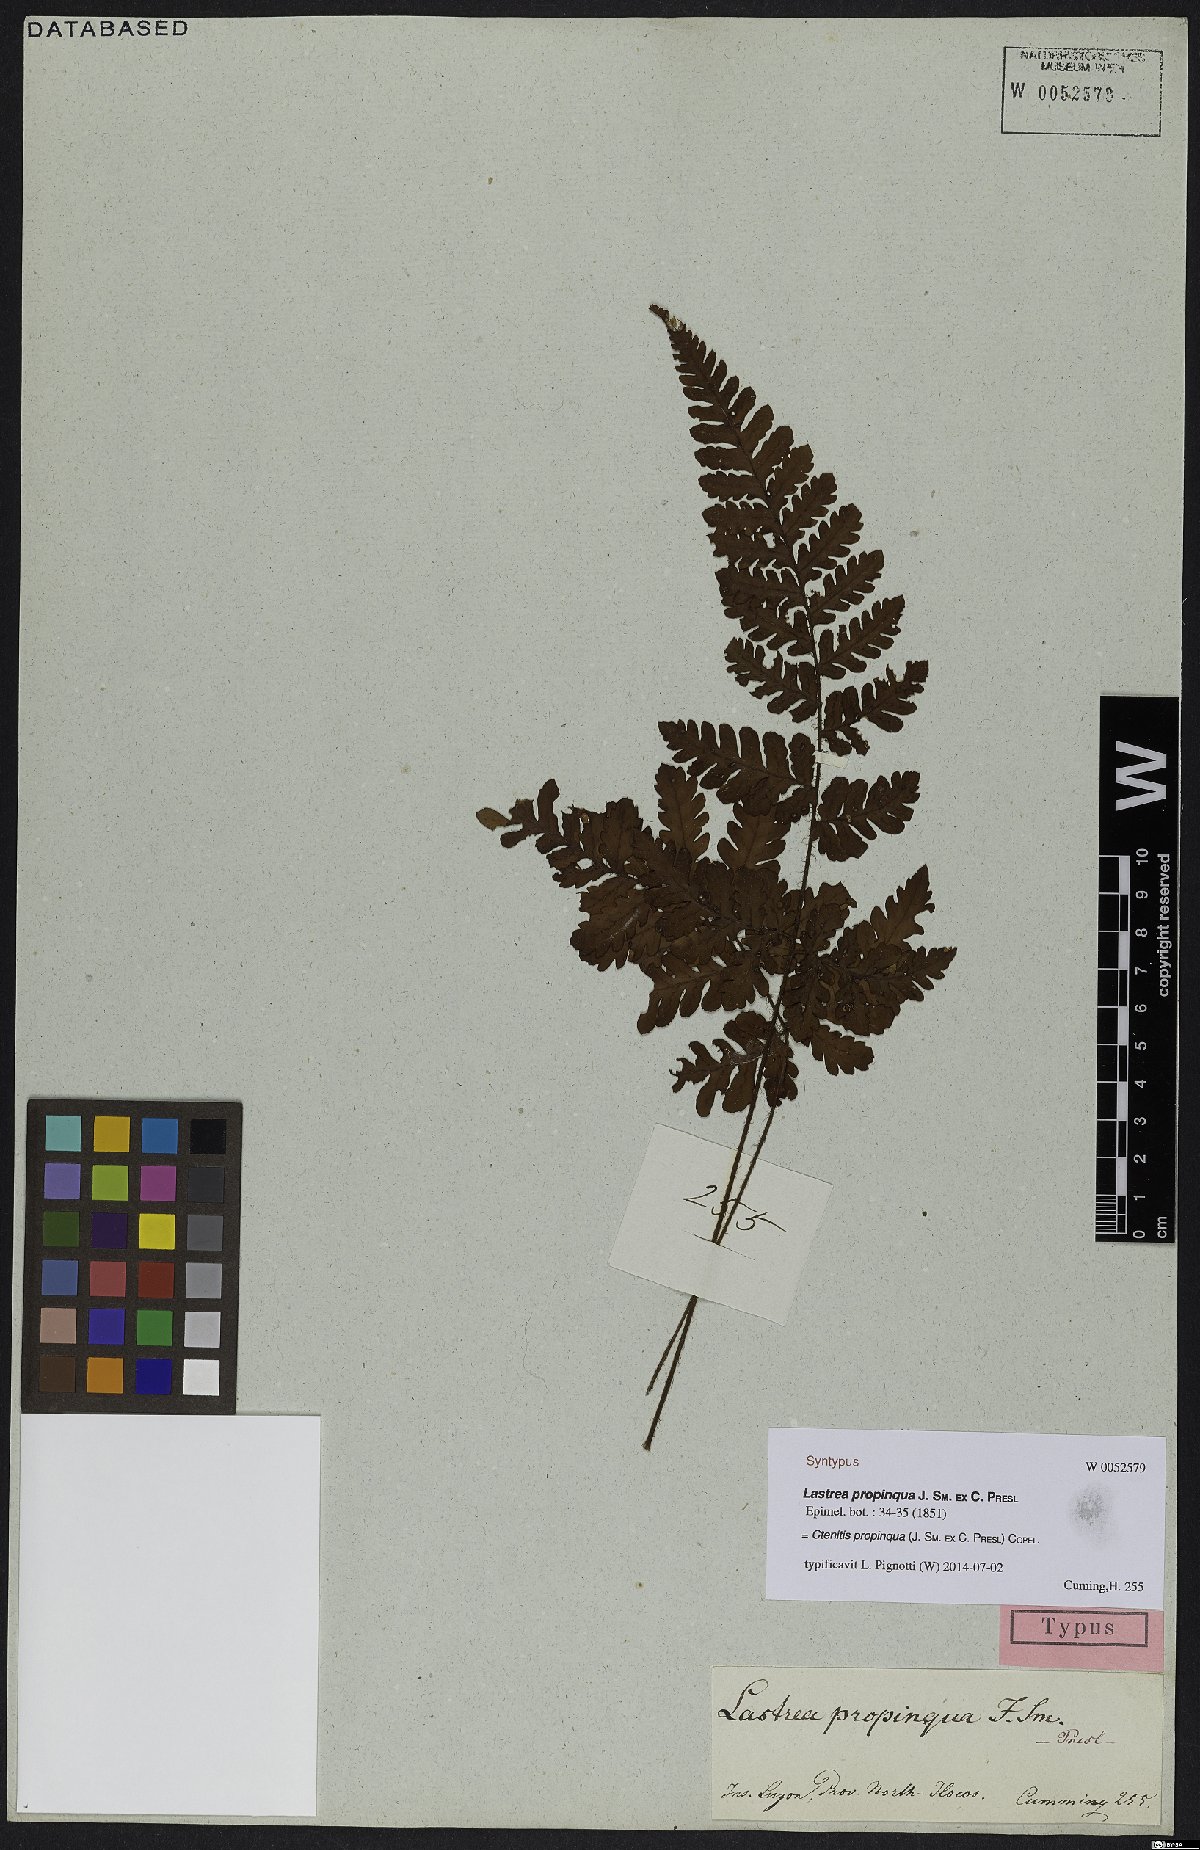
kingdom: Plantae
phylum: Tracheophyta
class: Polypodiopsida
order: Polypodiales
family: Dryopteridaceae
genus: Ctenitis
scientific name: Ctenitis propinqua
